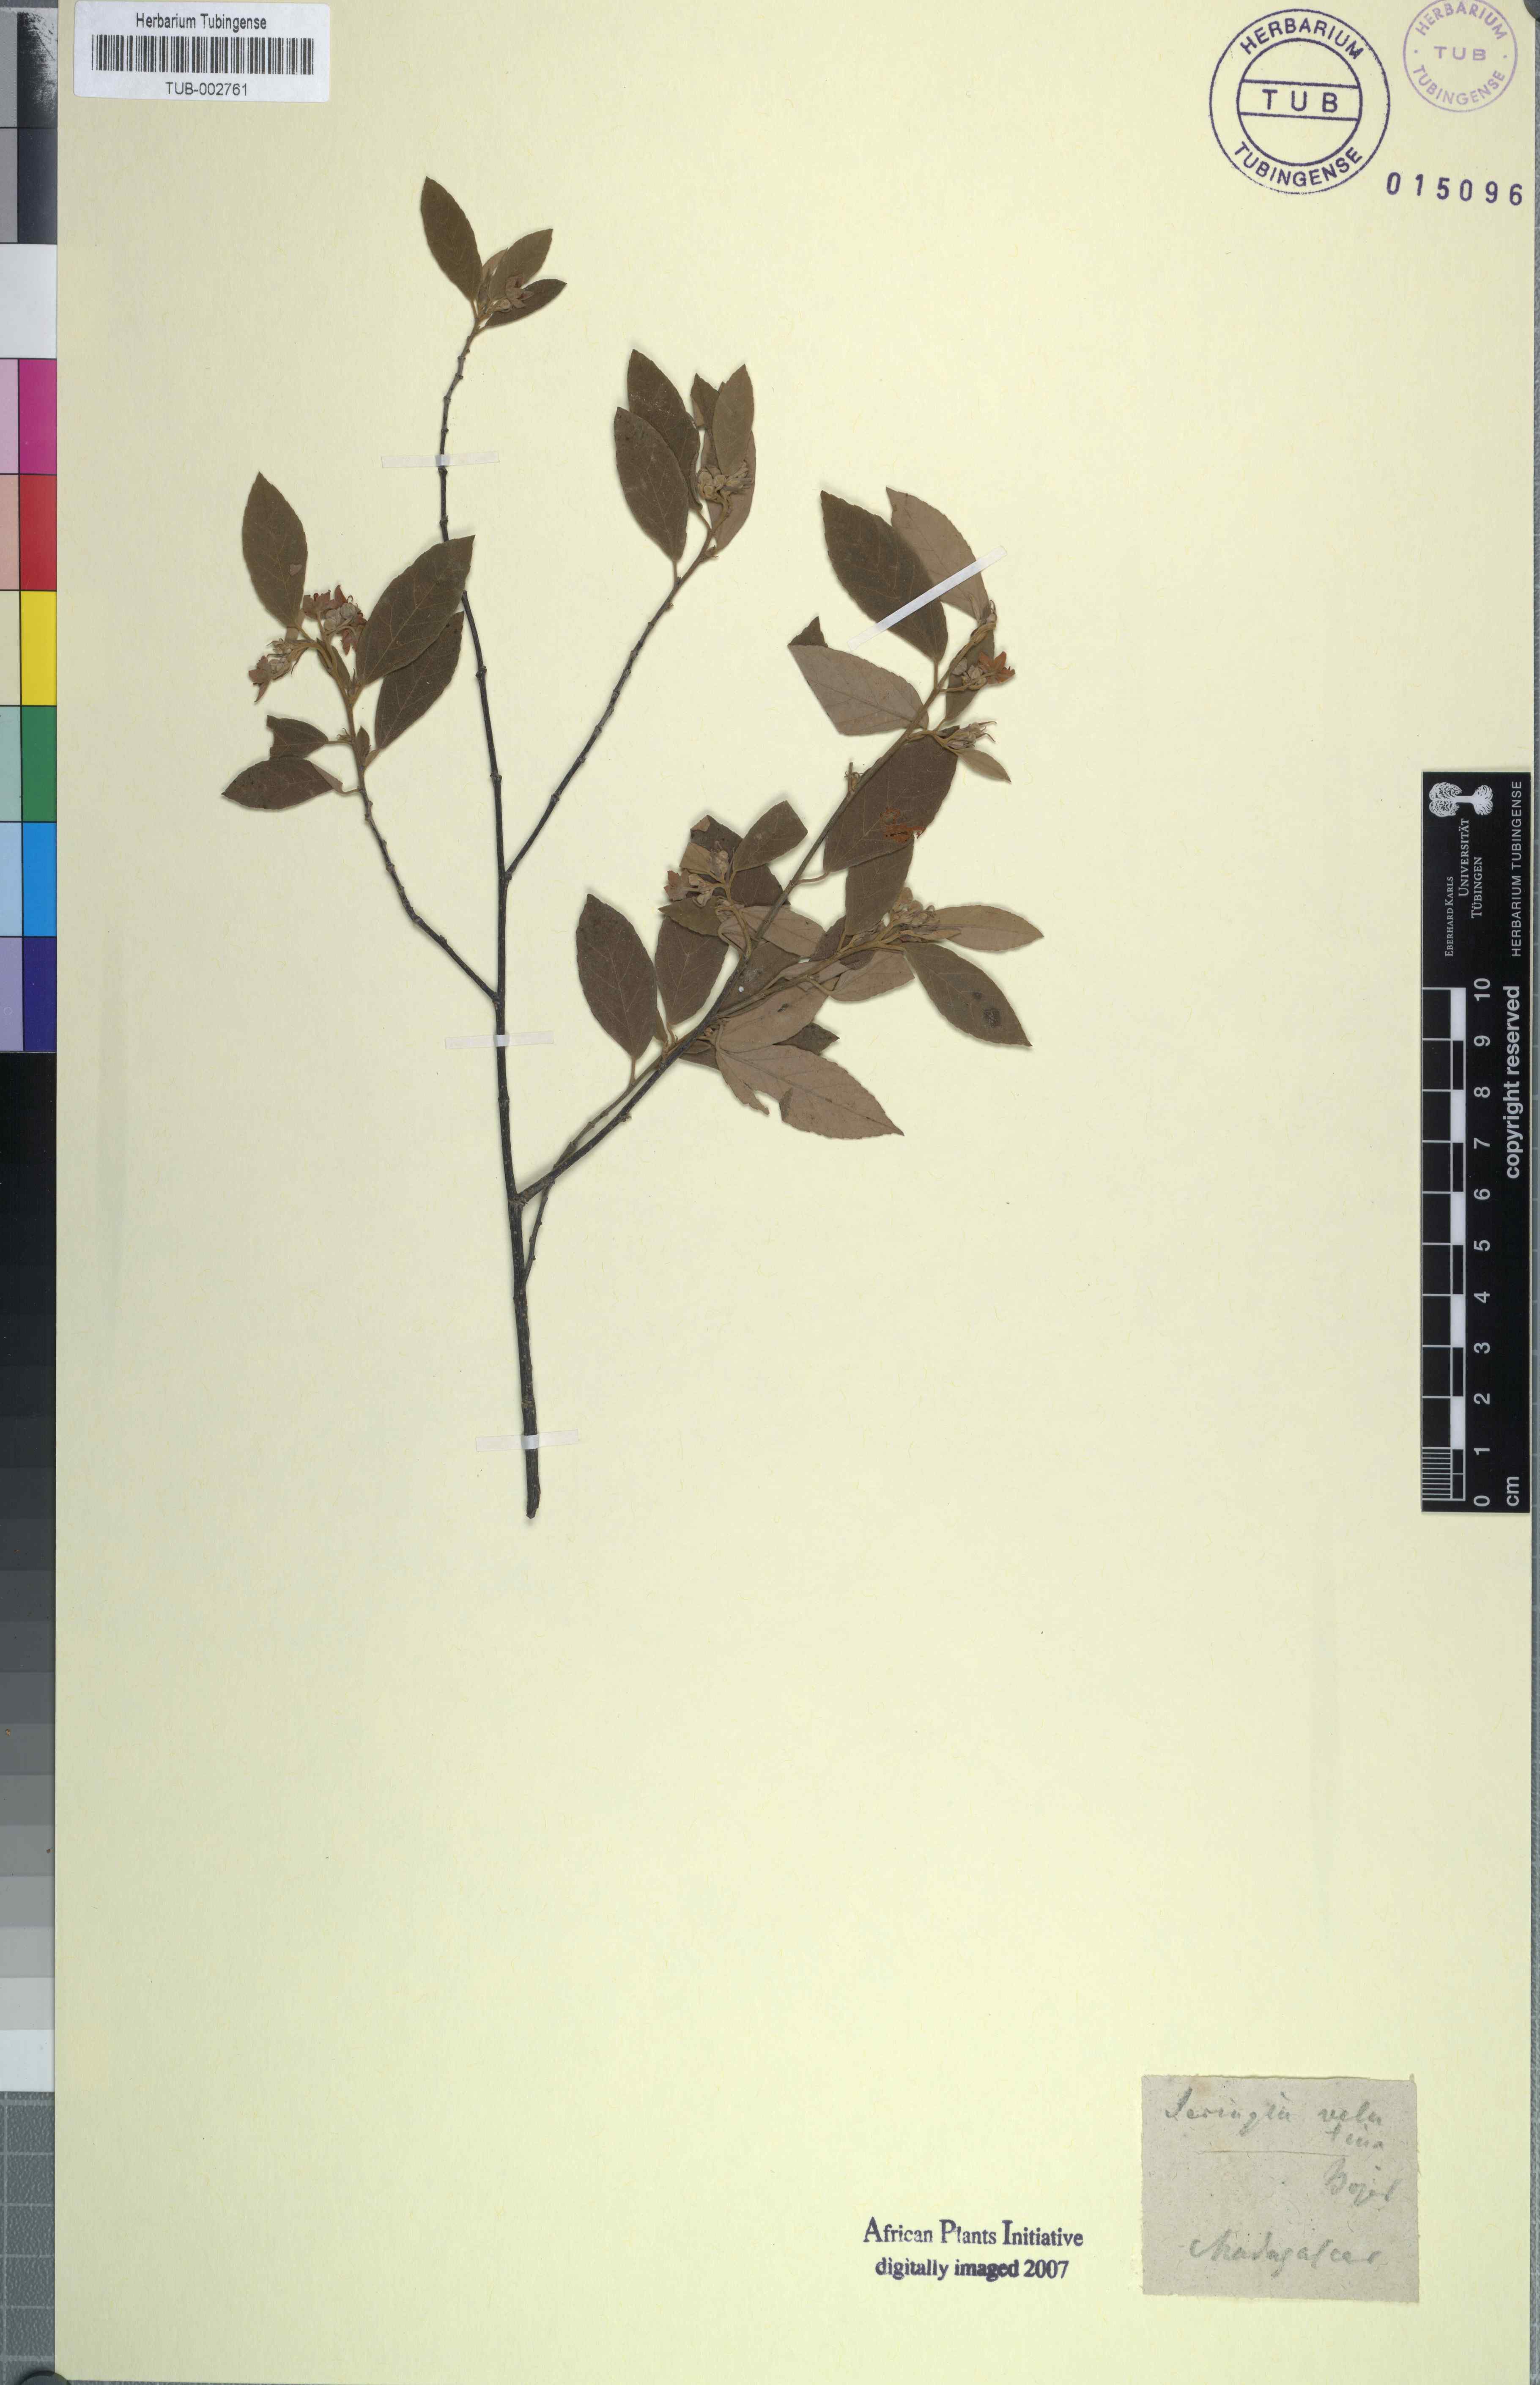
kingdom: Plantae
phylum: Tracheophyta
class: Magnoliopsida
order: Malvales
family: Malvaceae
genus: Seringia
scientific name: Seringia velutina
